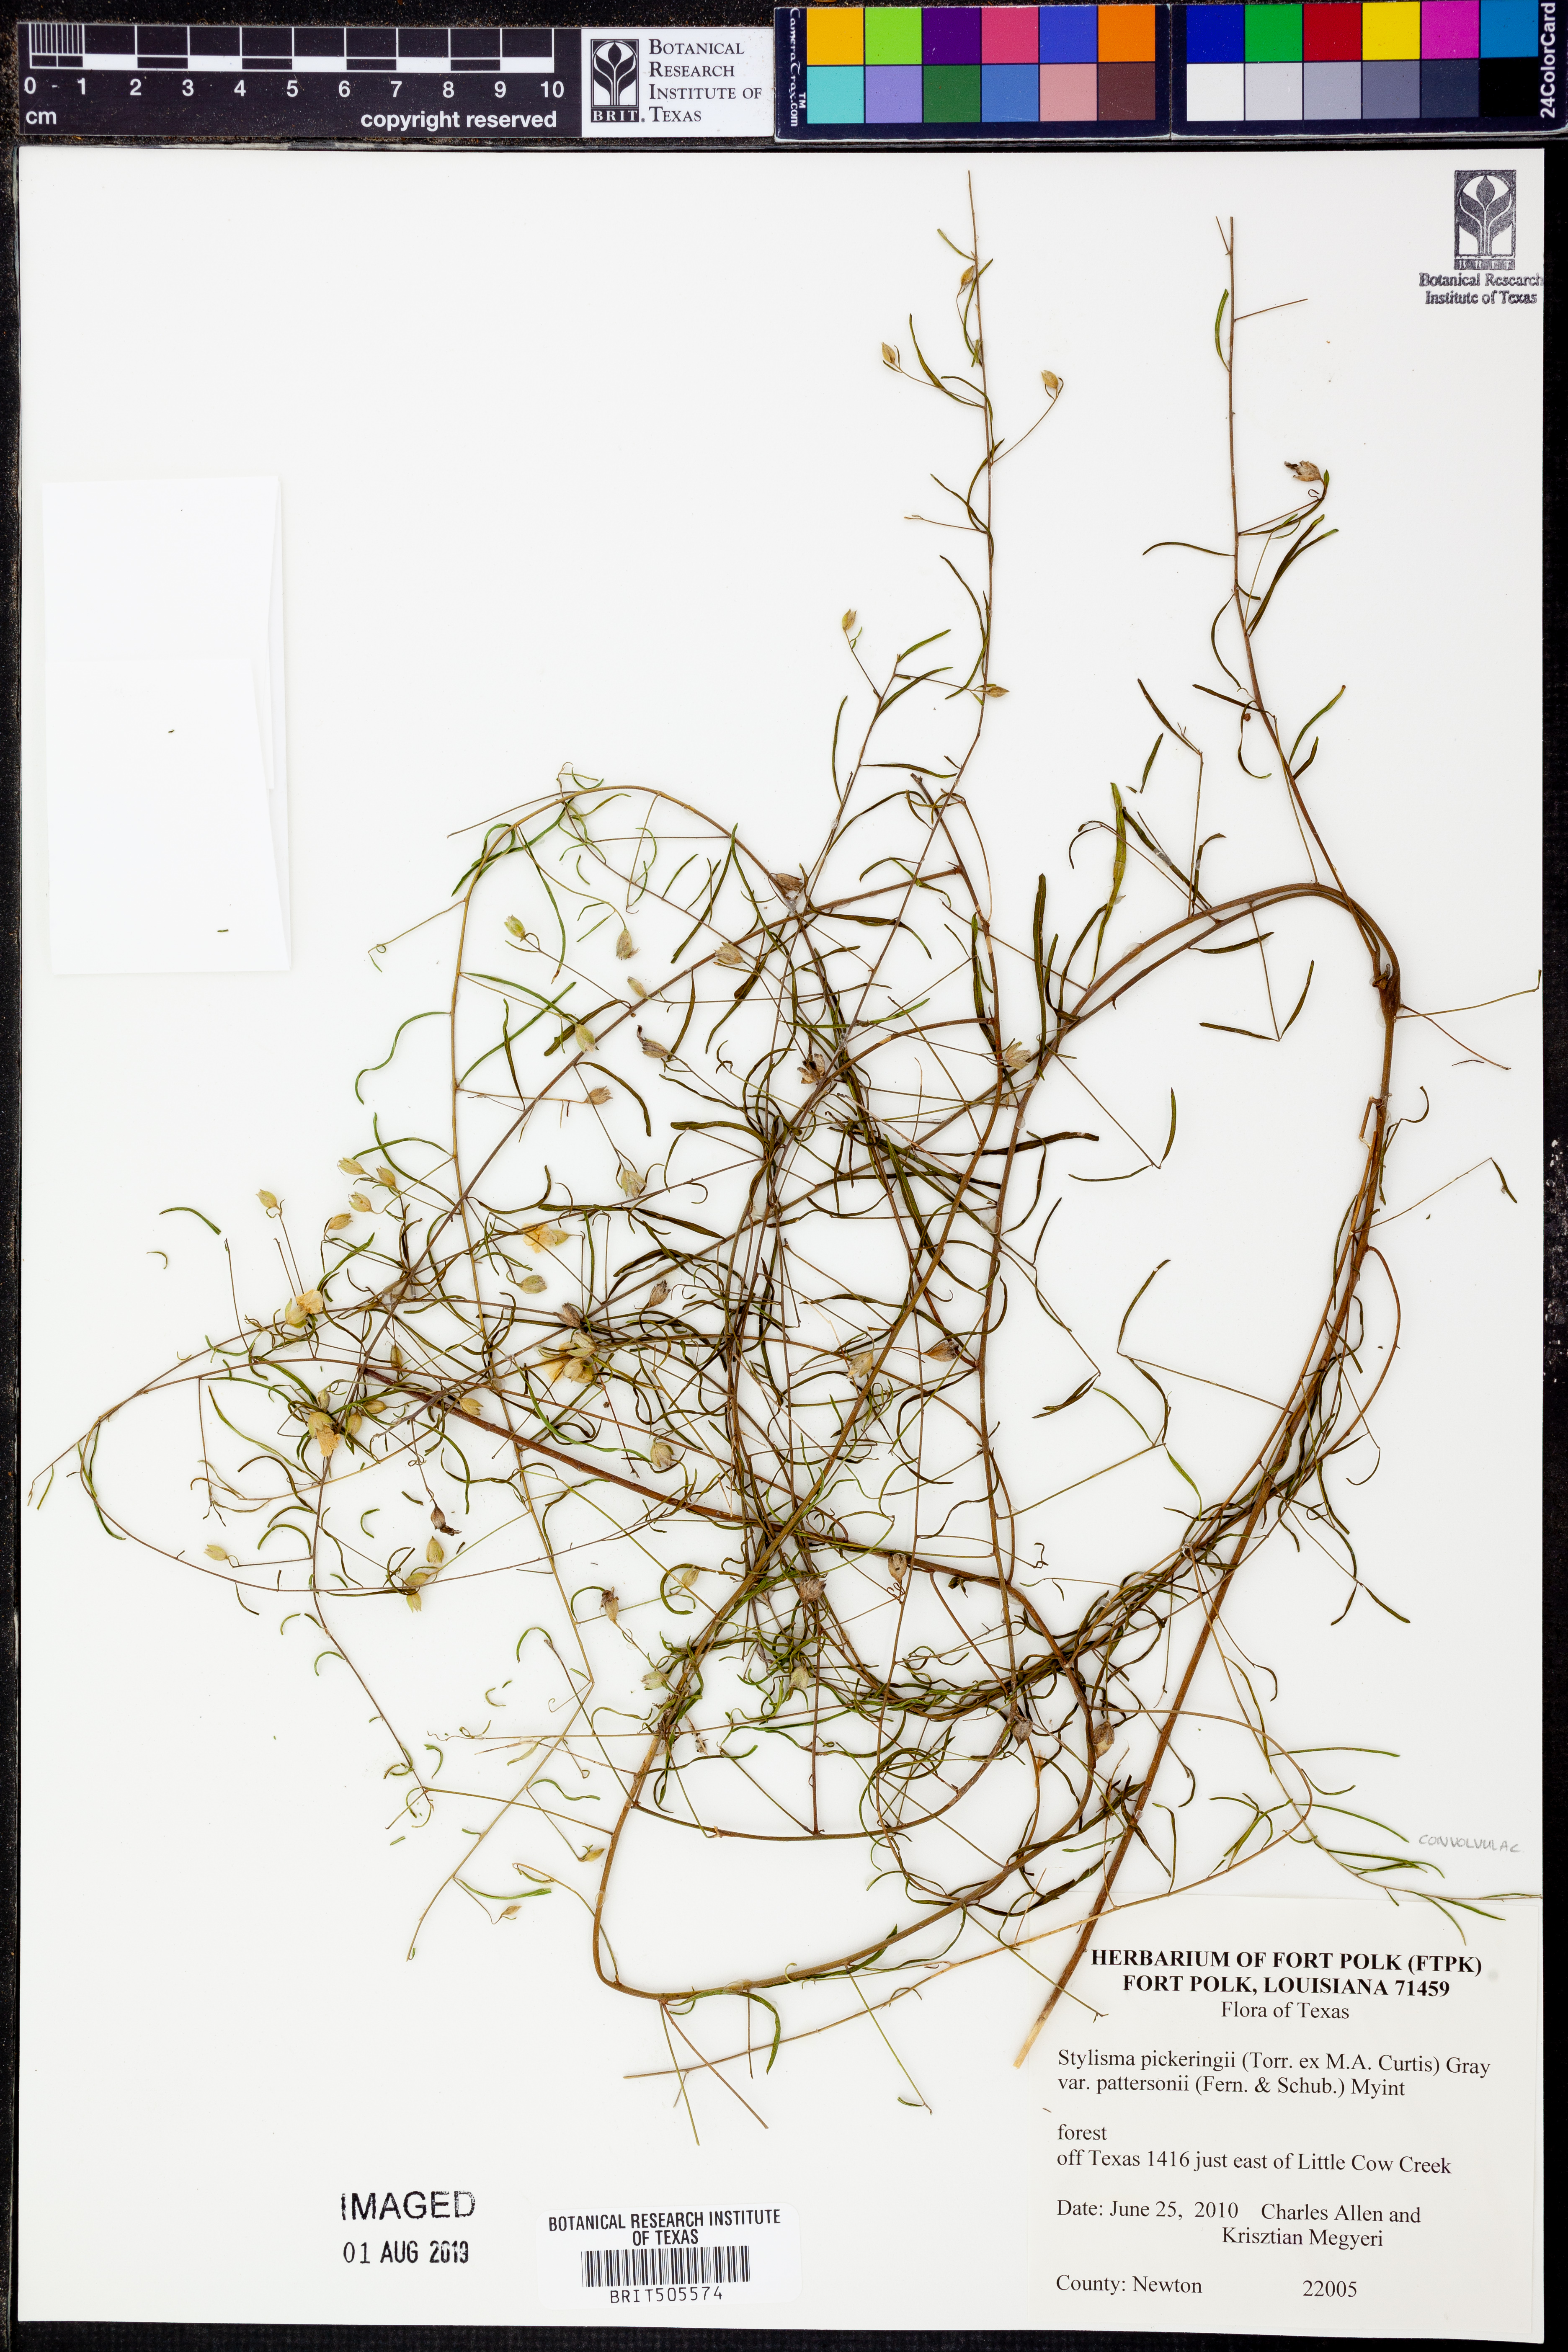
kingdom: Plantae
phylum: Tracheophyta
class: Magnoliopsida
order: Solanales
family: Convolvulaceae
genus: Stylisma
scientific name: Stylisma pickeringii
